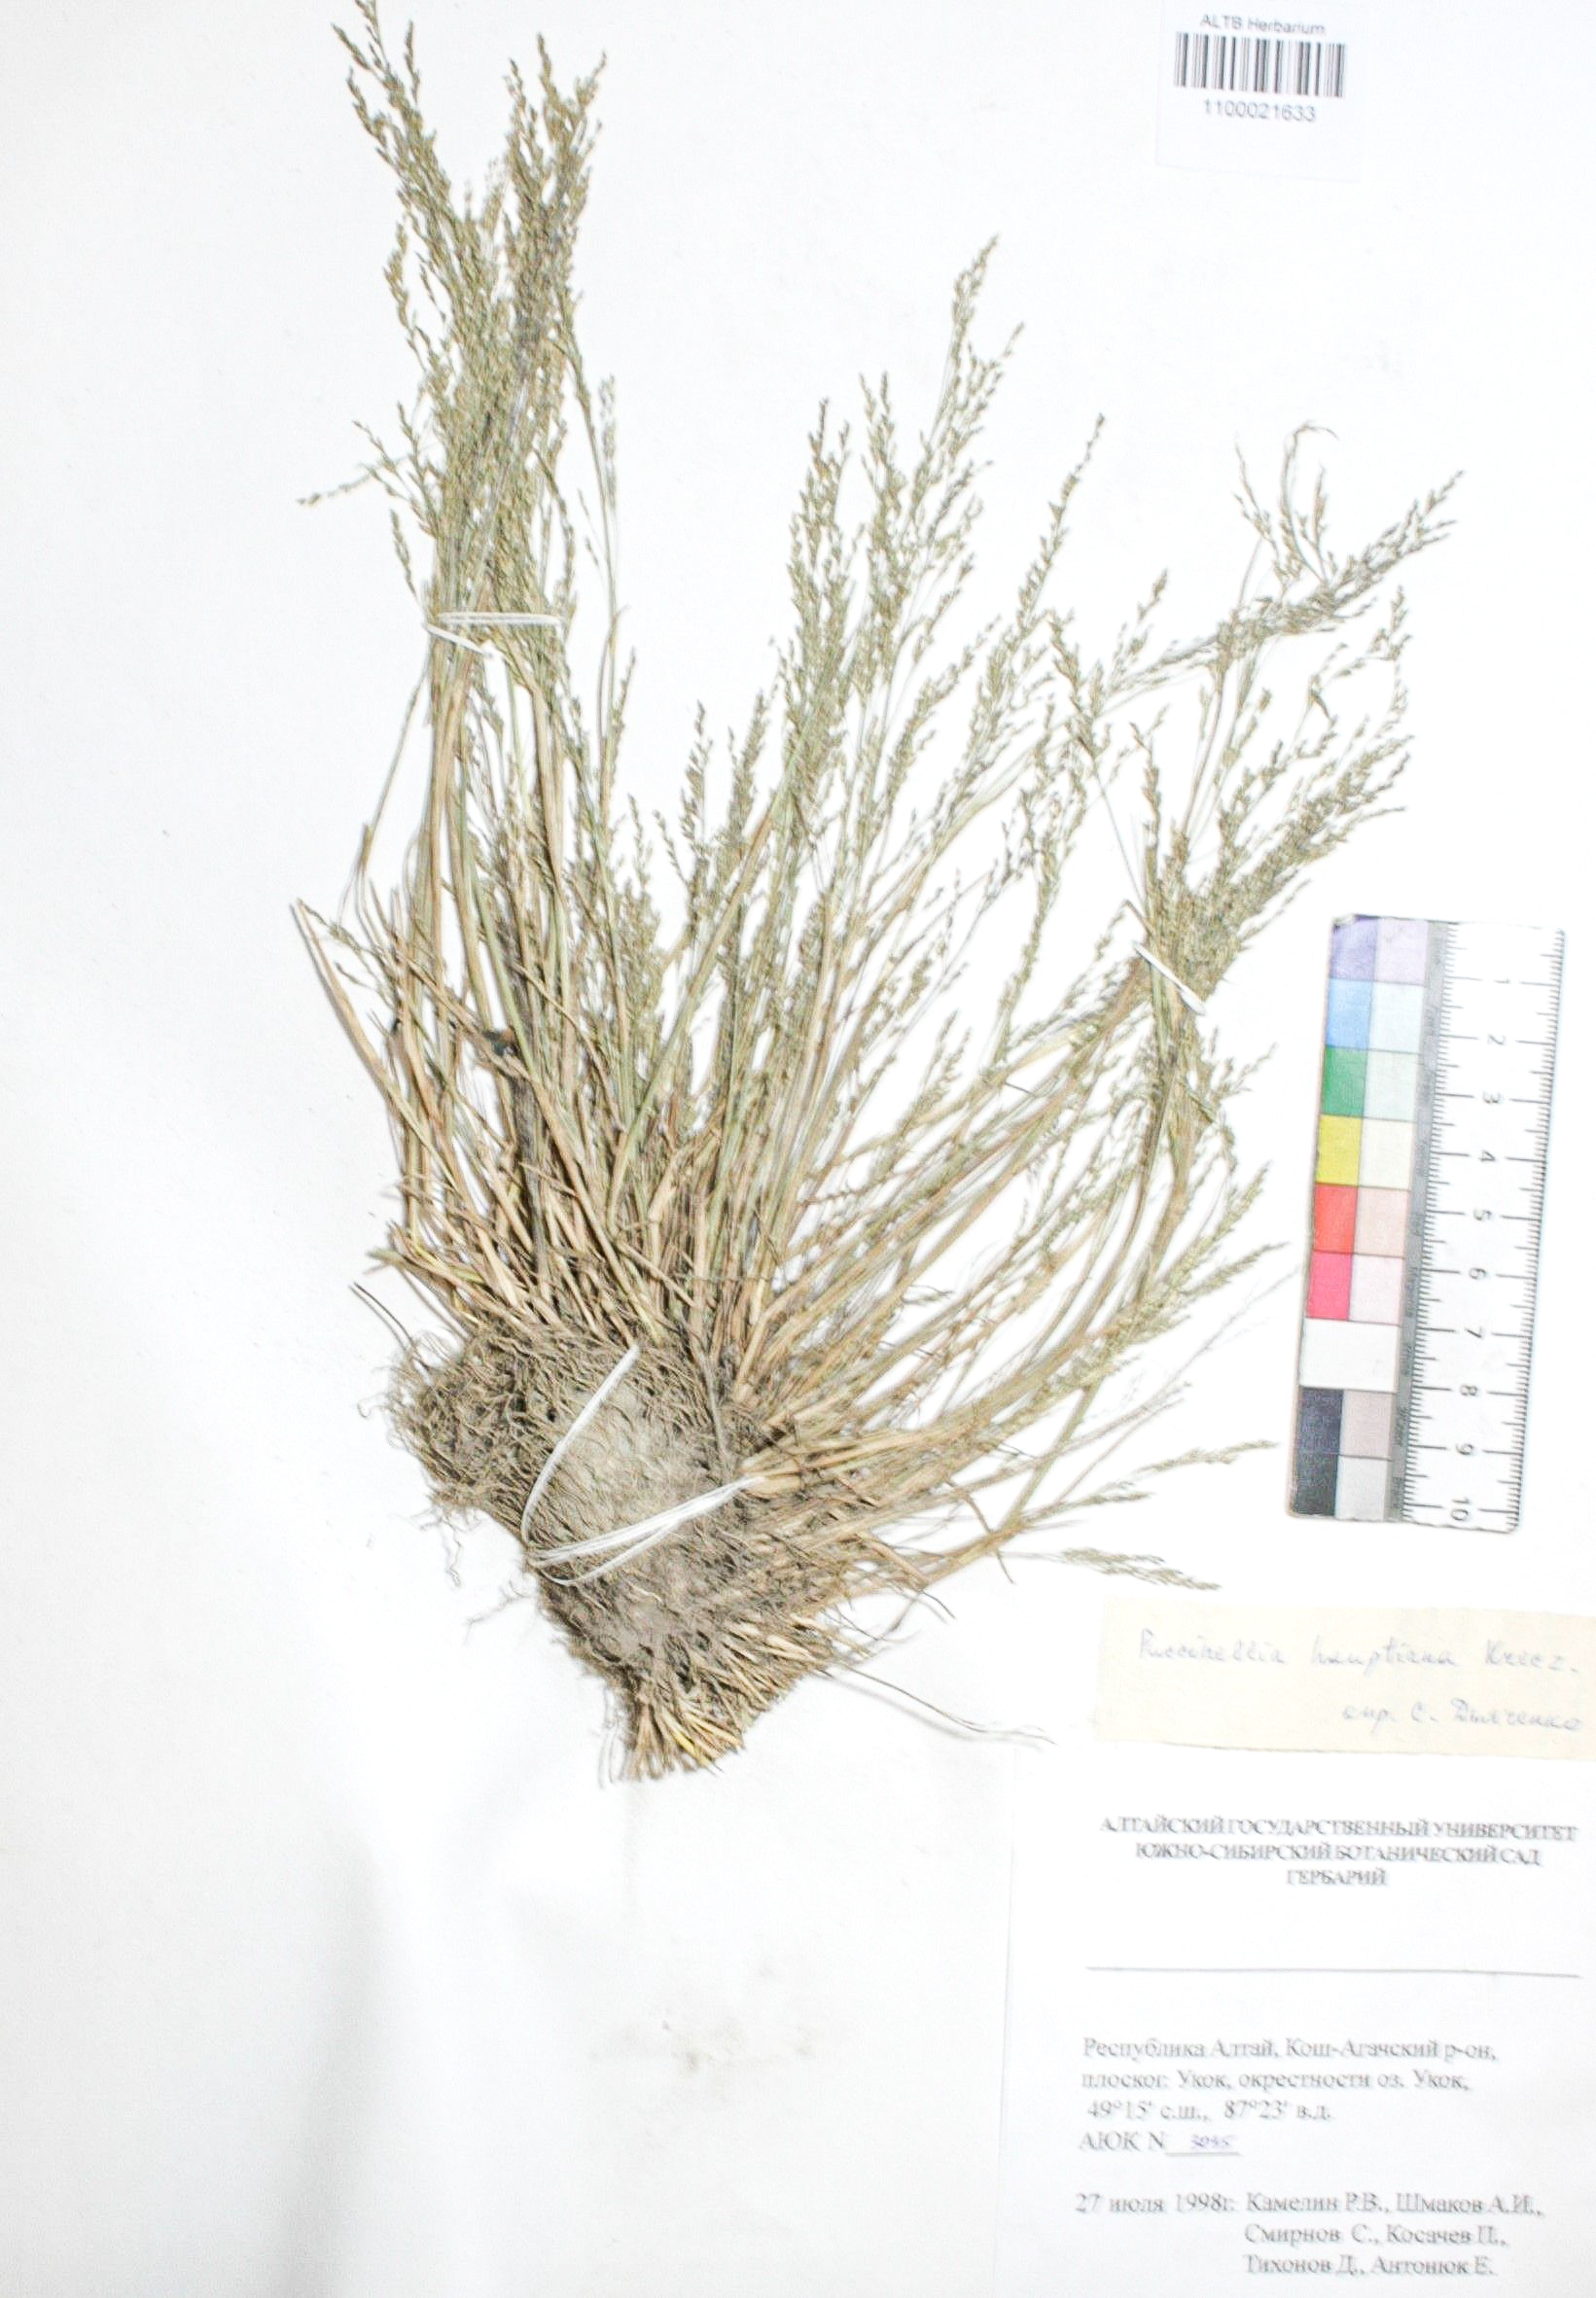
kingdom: Plantae
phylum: Tracheophyta
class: Liliopsida
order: Poales
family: Poaceae
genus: Puccinellia
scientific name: Puccinellia hauptiana
